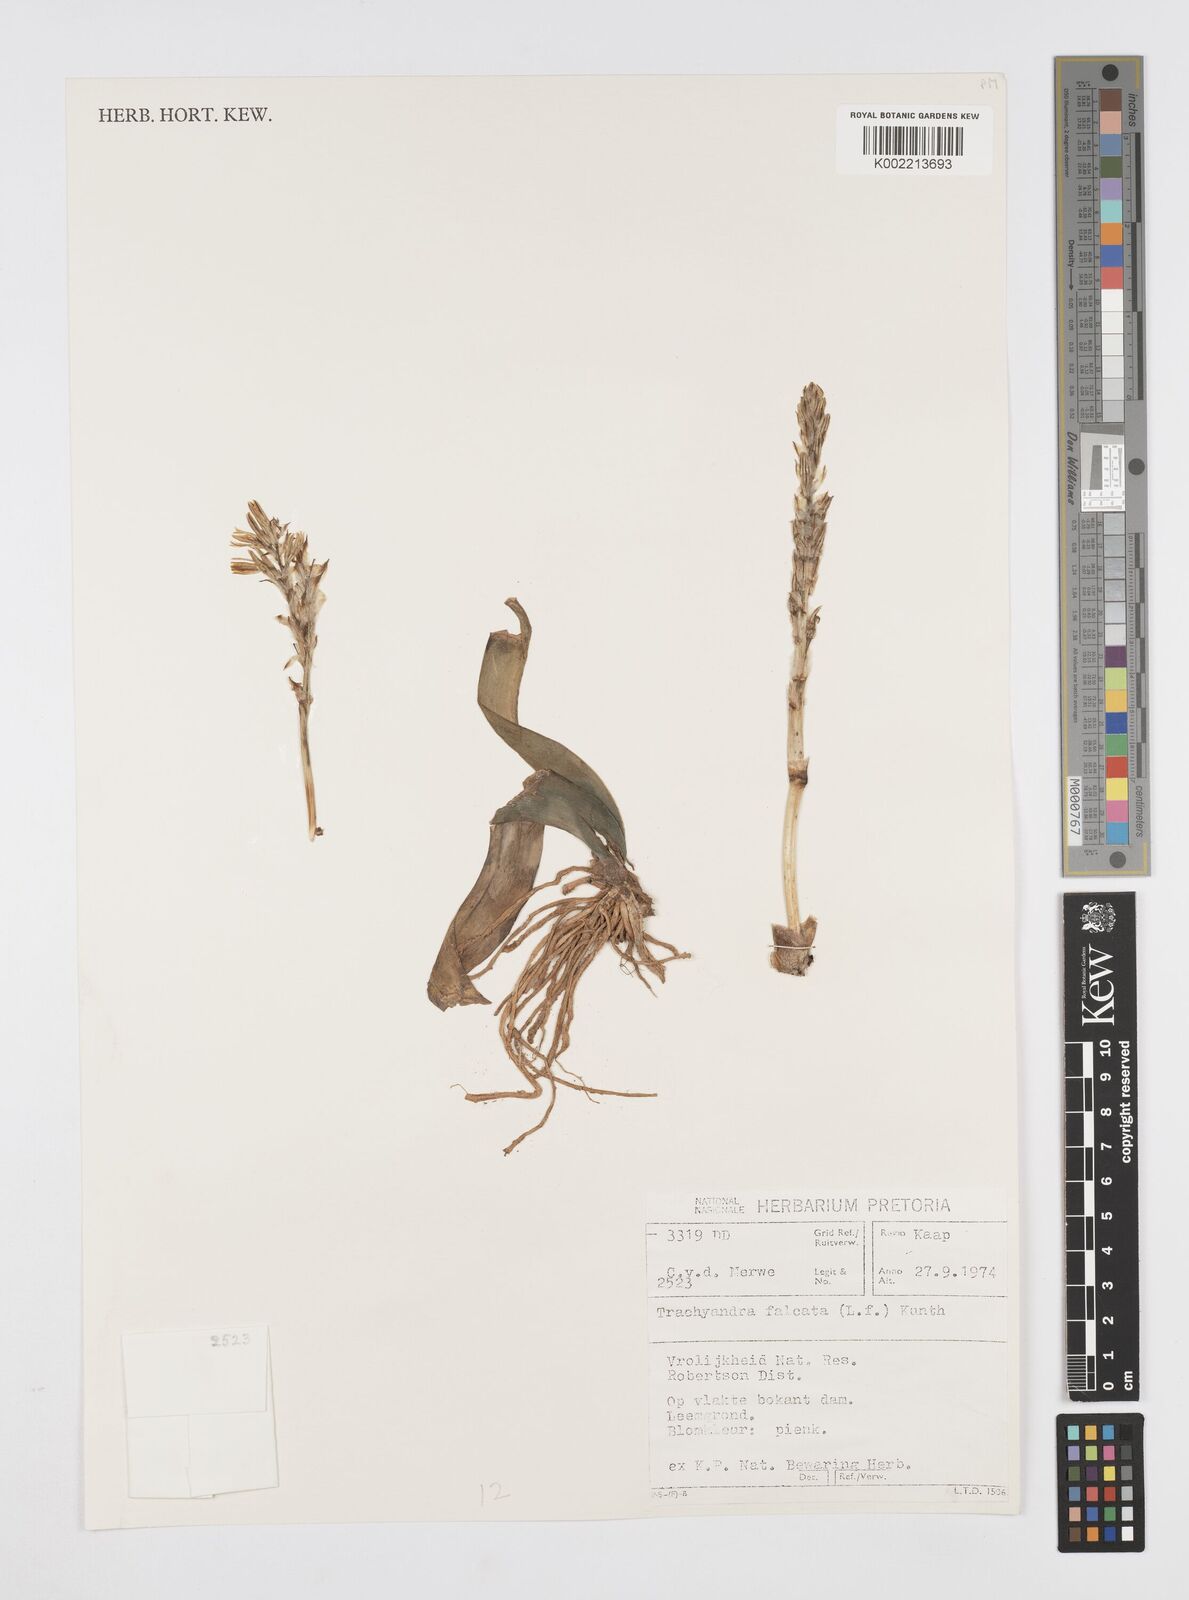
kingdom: Plantae
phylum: Tracheophyta
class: Liliopsida
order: Asparagales
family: Asphodelaceae
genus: Trachyandra
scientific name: Trachyandra falcata
